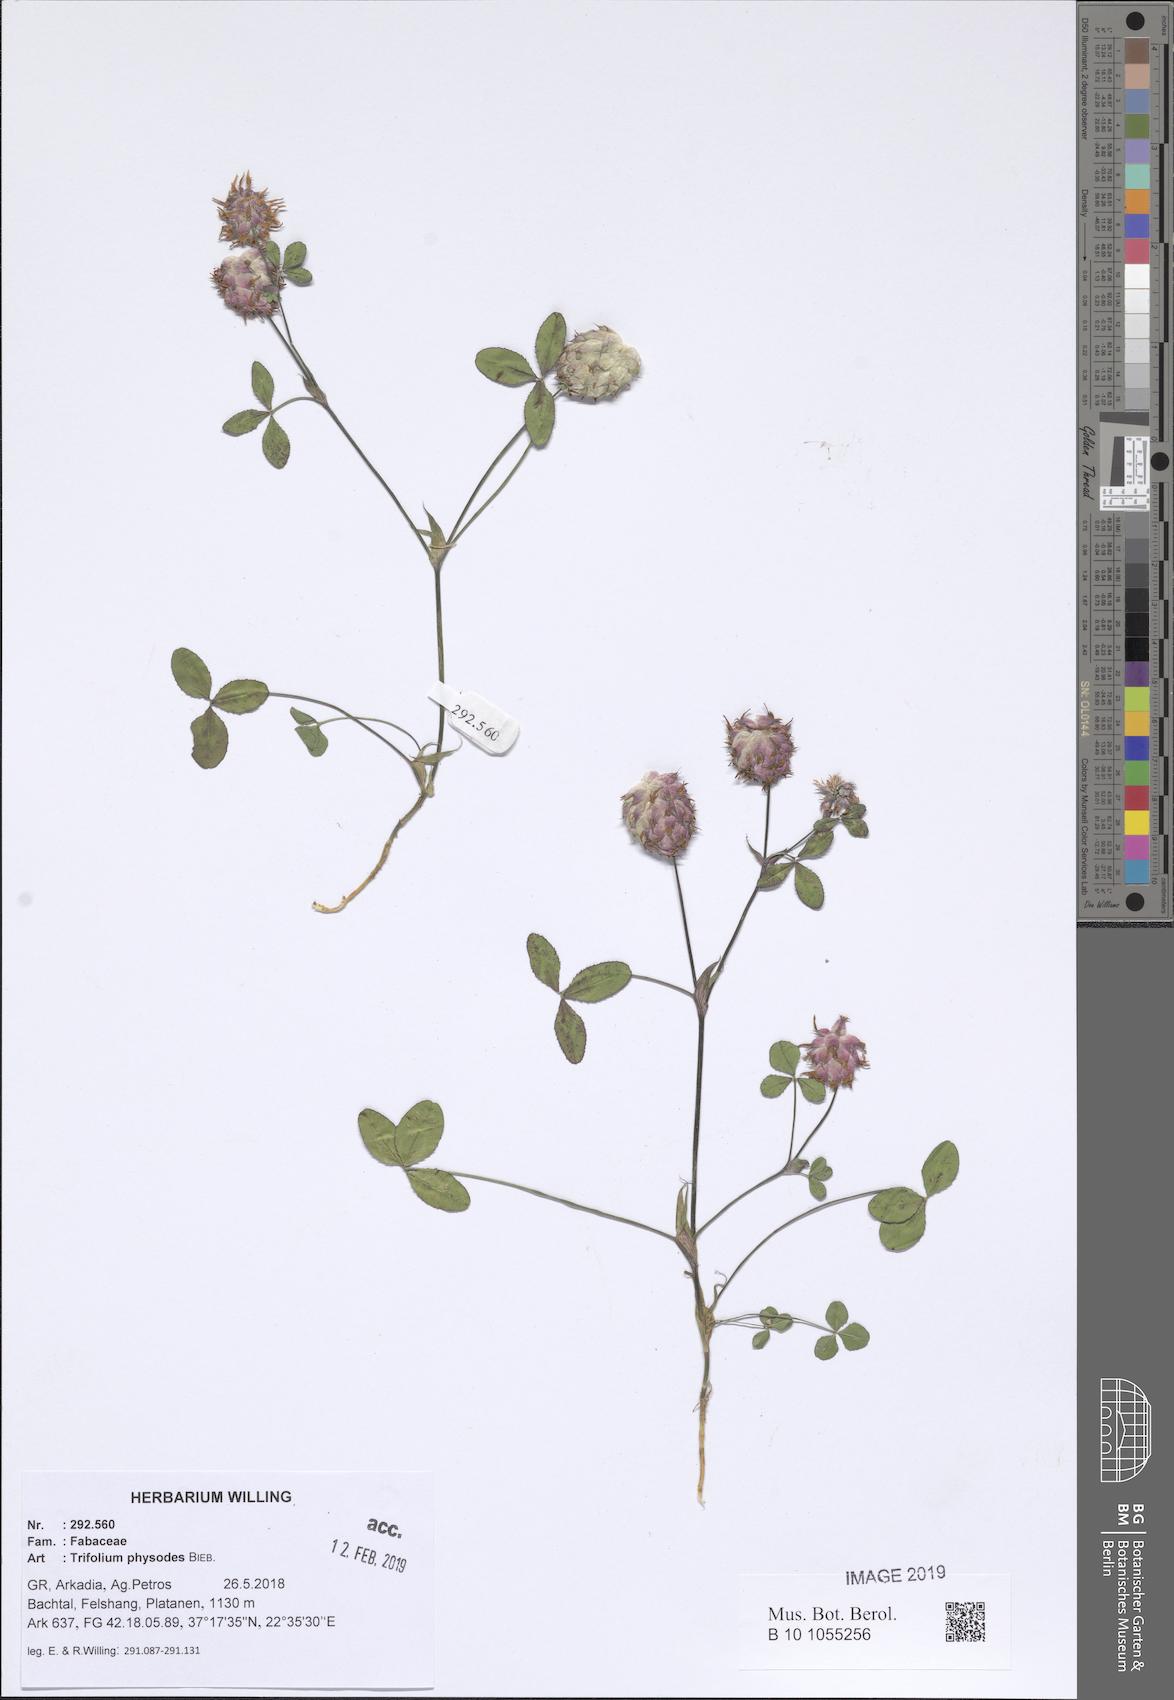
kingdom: Plantae
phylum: Tracheophyta
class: Magnoliopsida
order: Fabales
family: Fabaceae
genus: Trifolium
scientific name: Trifolium physodes
